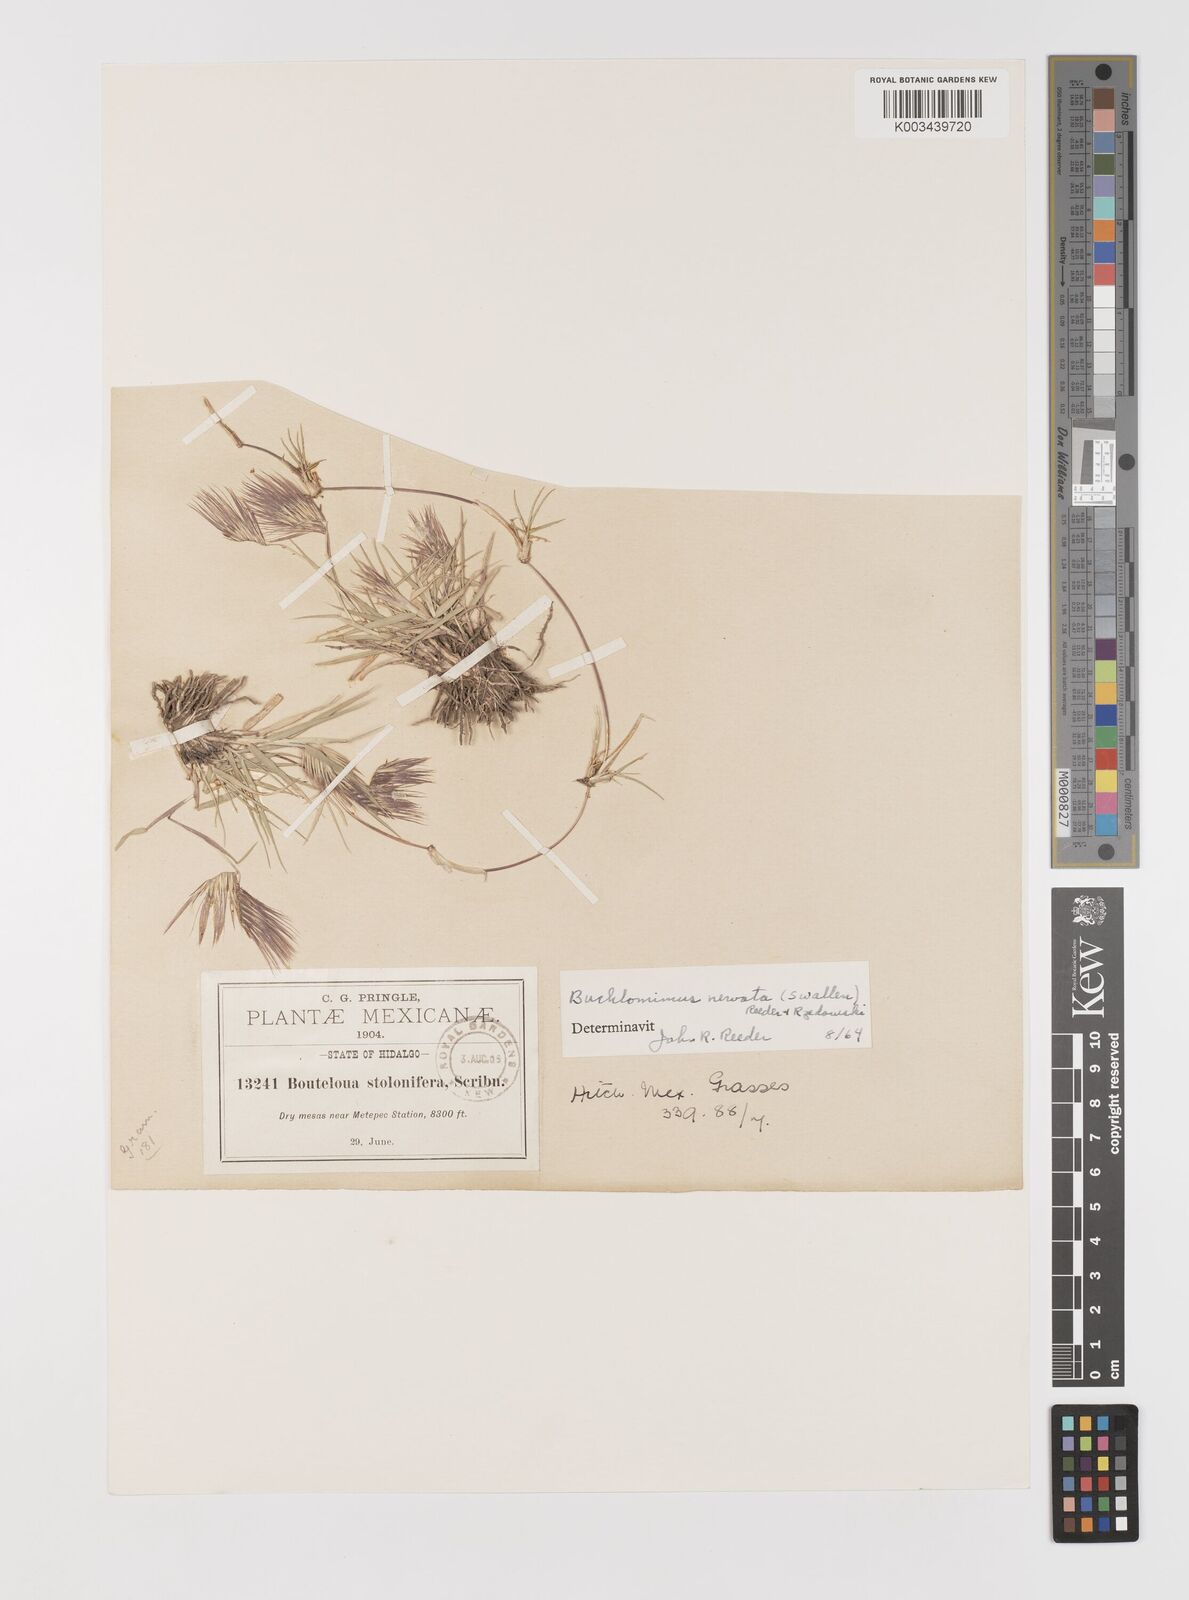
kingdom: Plantae
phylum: Tracheophyta
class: Liliopsida
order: Poales
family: Poaceae
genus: Bouteloua
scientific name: Bouteloua nervata
